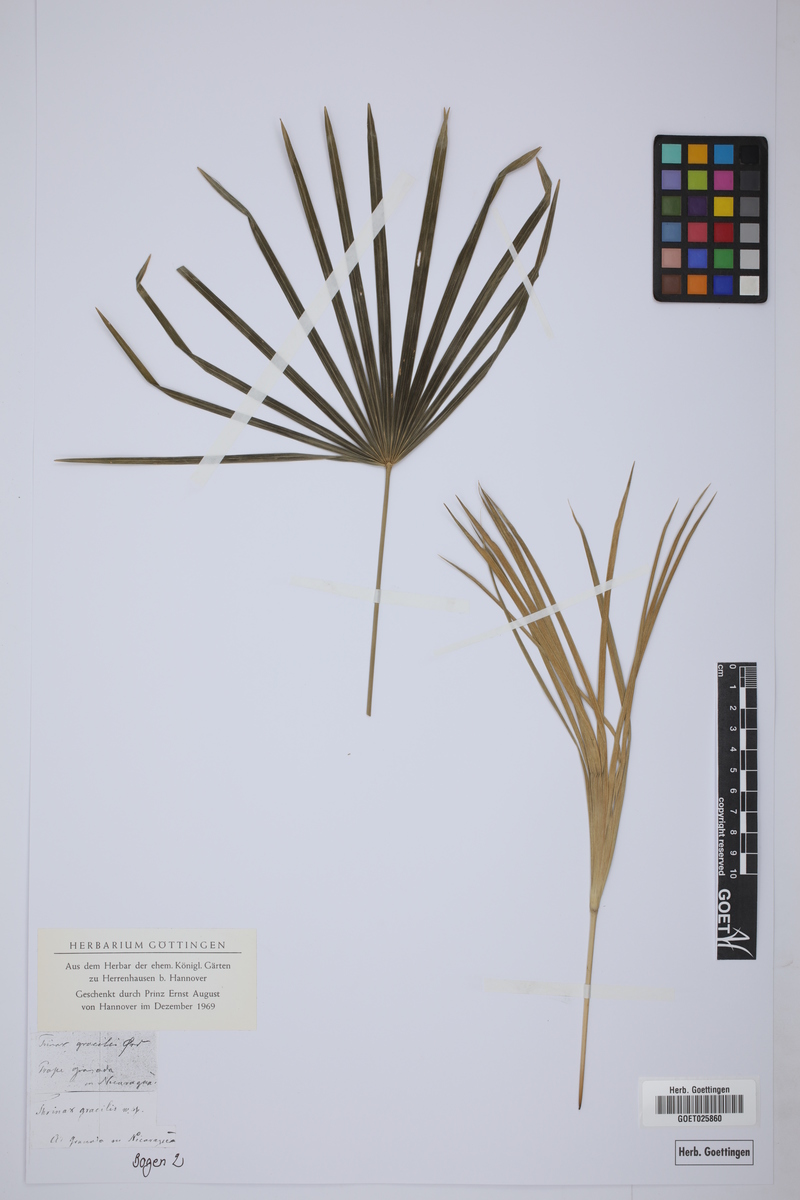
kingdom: Plantae
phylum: Tracheophyta
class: Liliopsida
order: Arecales
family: Arecaceae
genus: Thrinax
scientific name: Thrinax radiata
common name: Florida thatch
